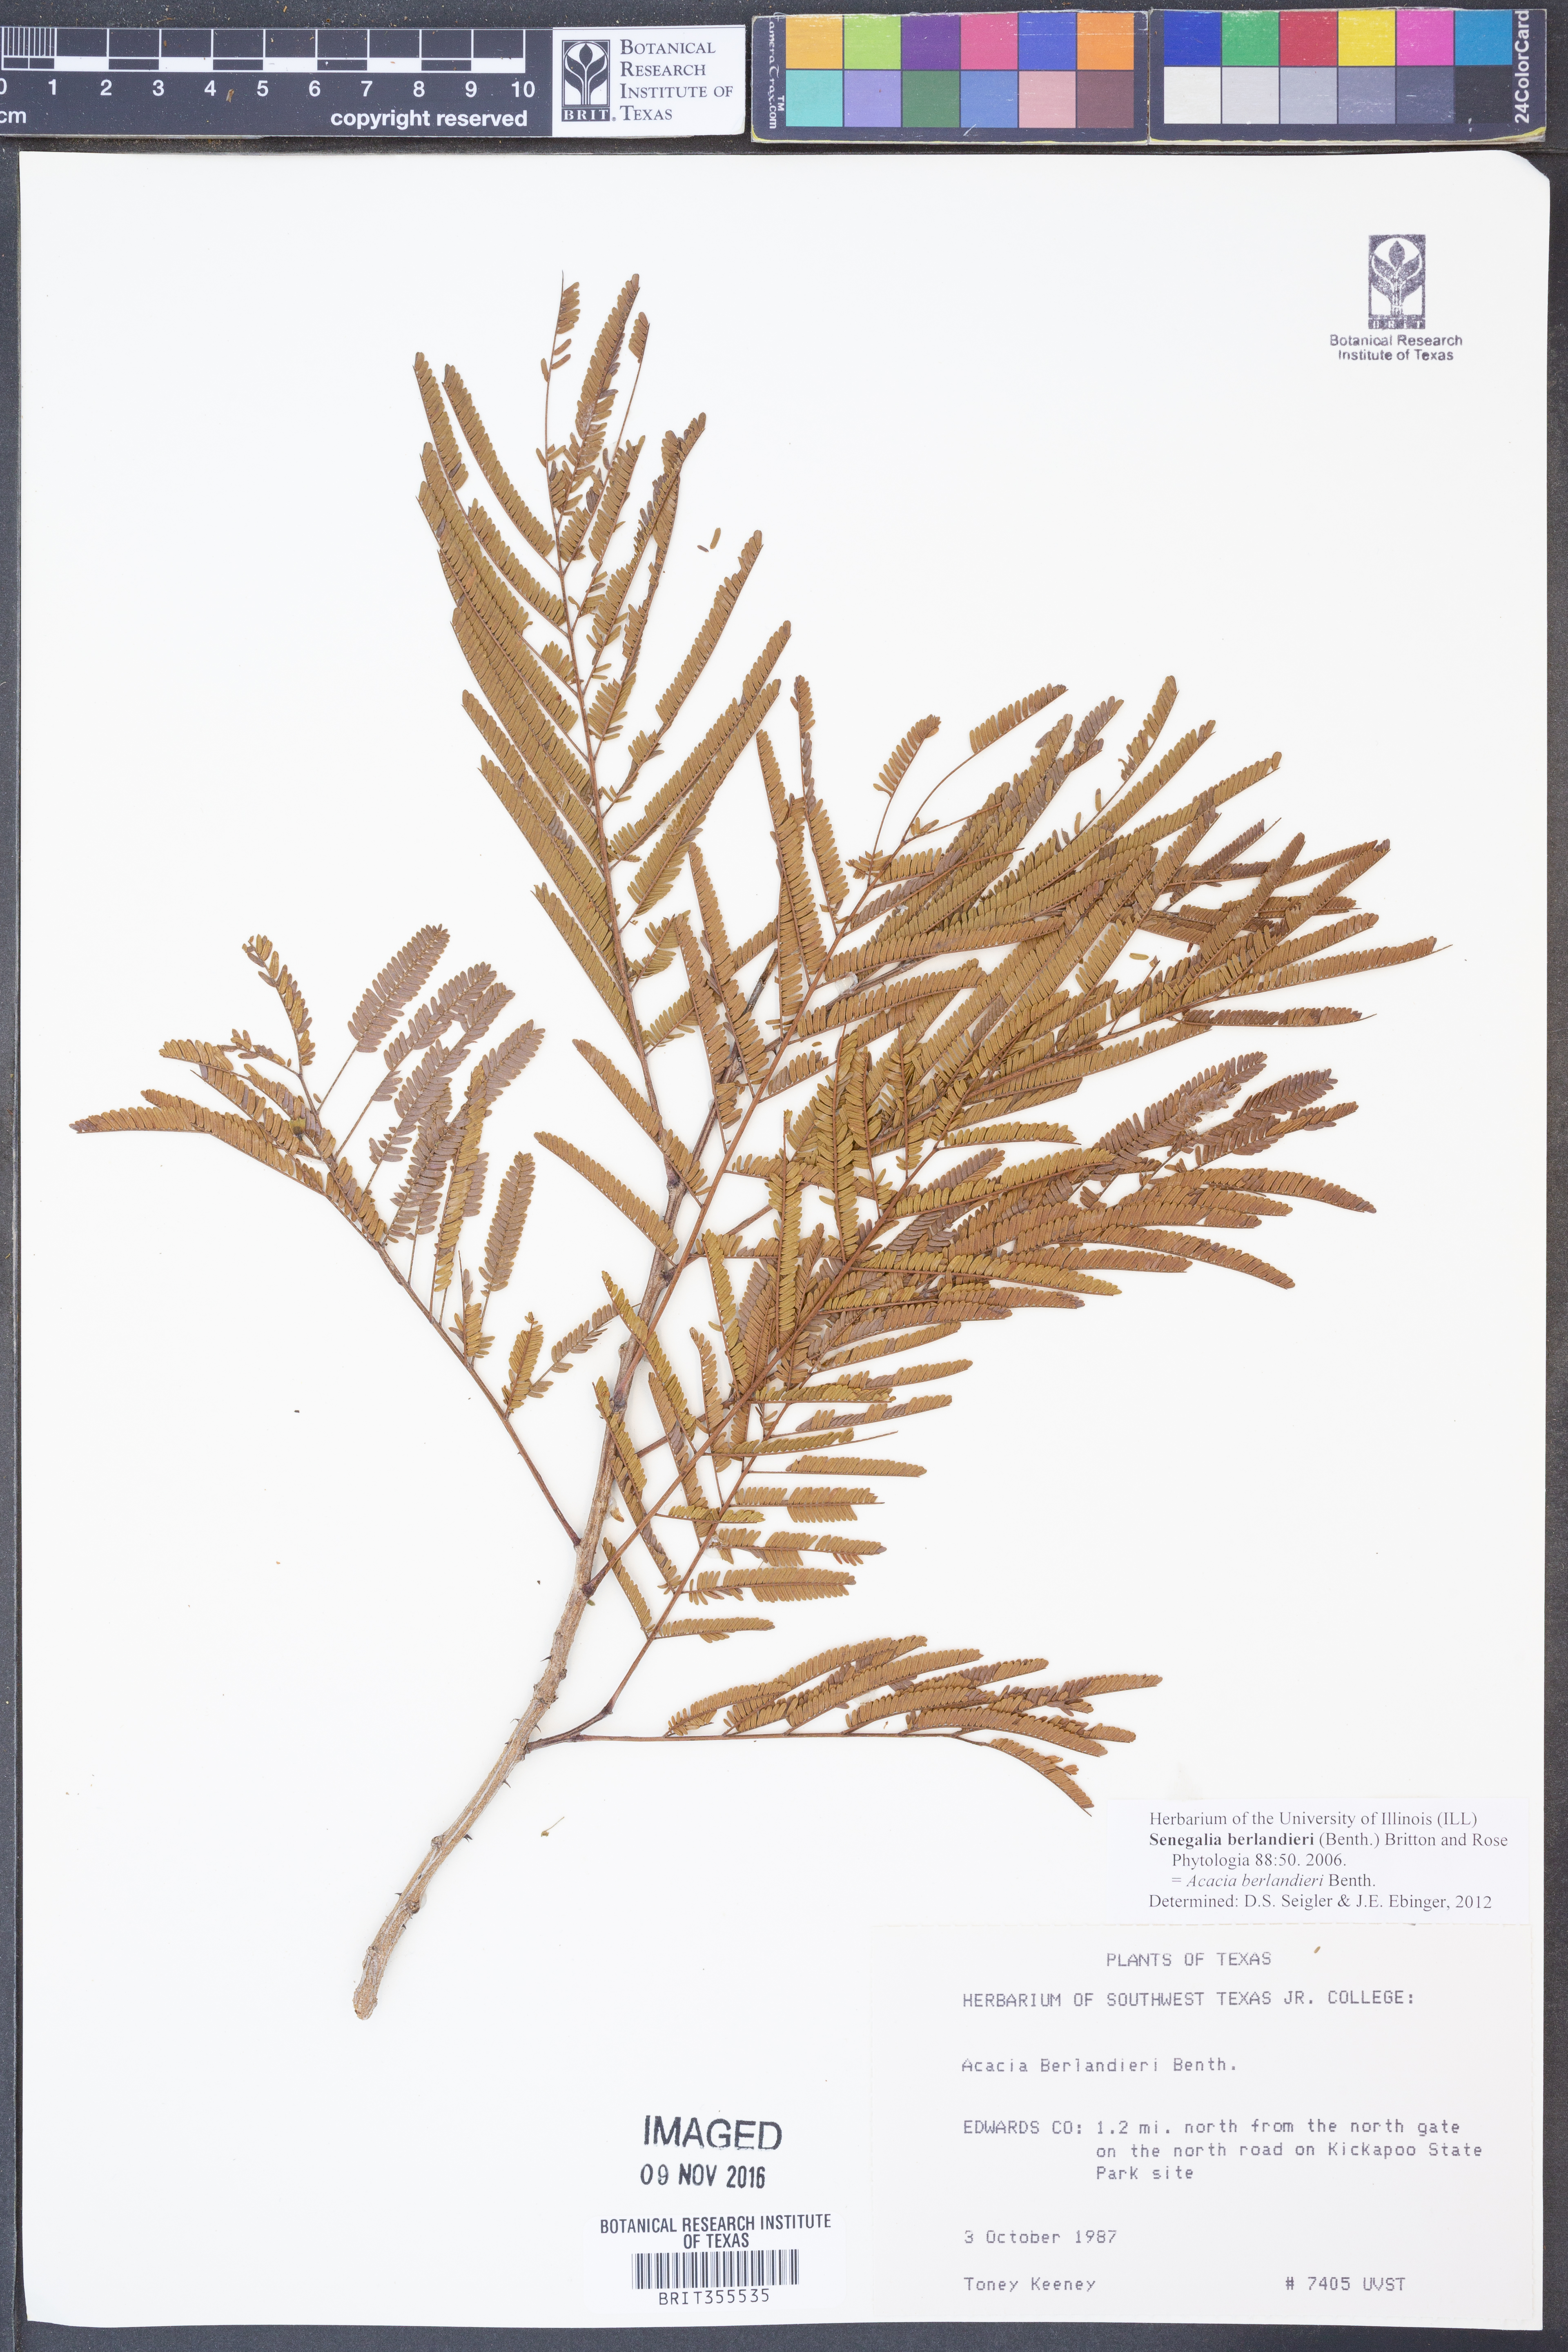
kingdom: Plantae
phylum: Tracheophyta
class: Magnoliopsida
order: Fabales
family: Fabaceae
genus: Senegalia
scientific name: Senegalia berlandieri
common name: Berlandier acacia
